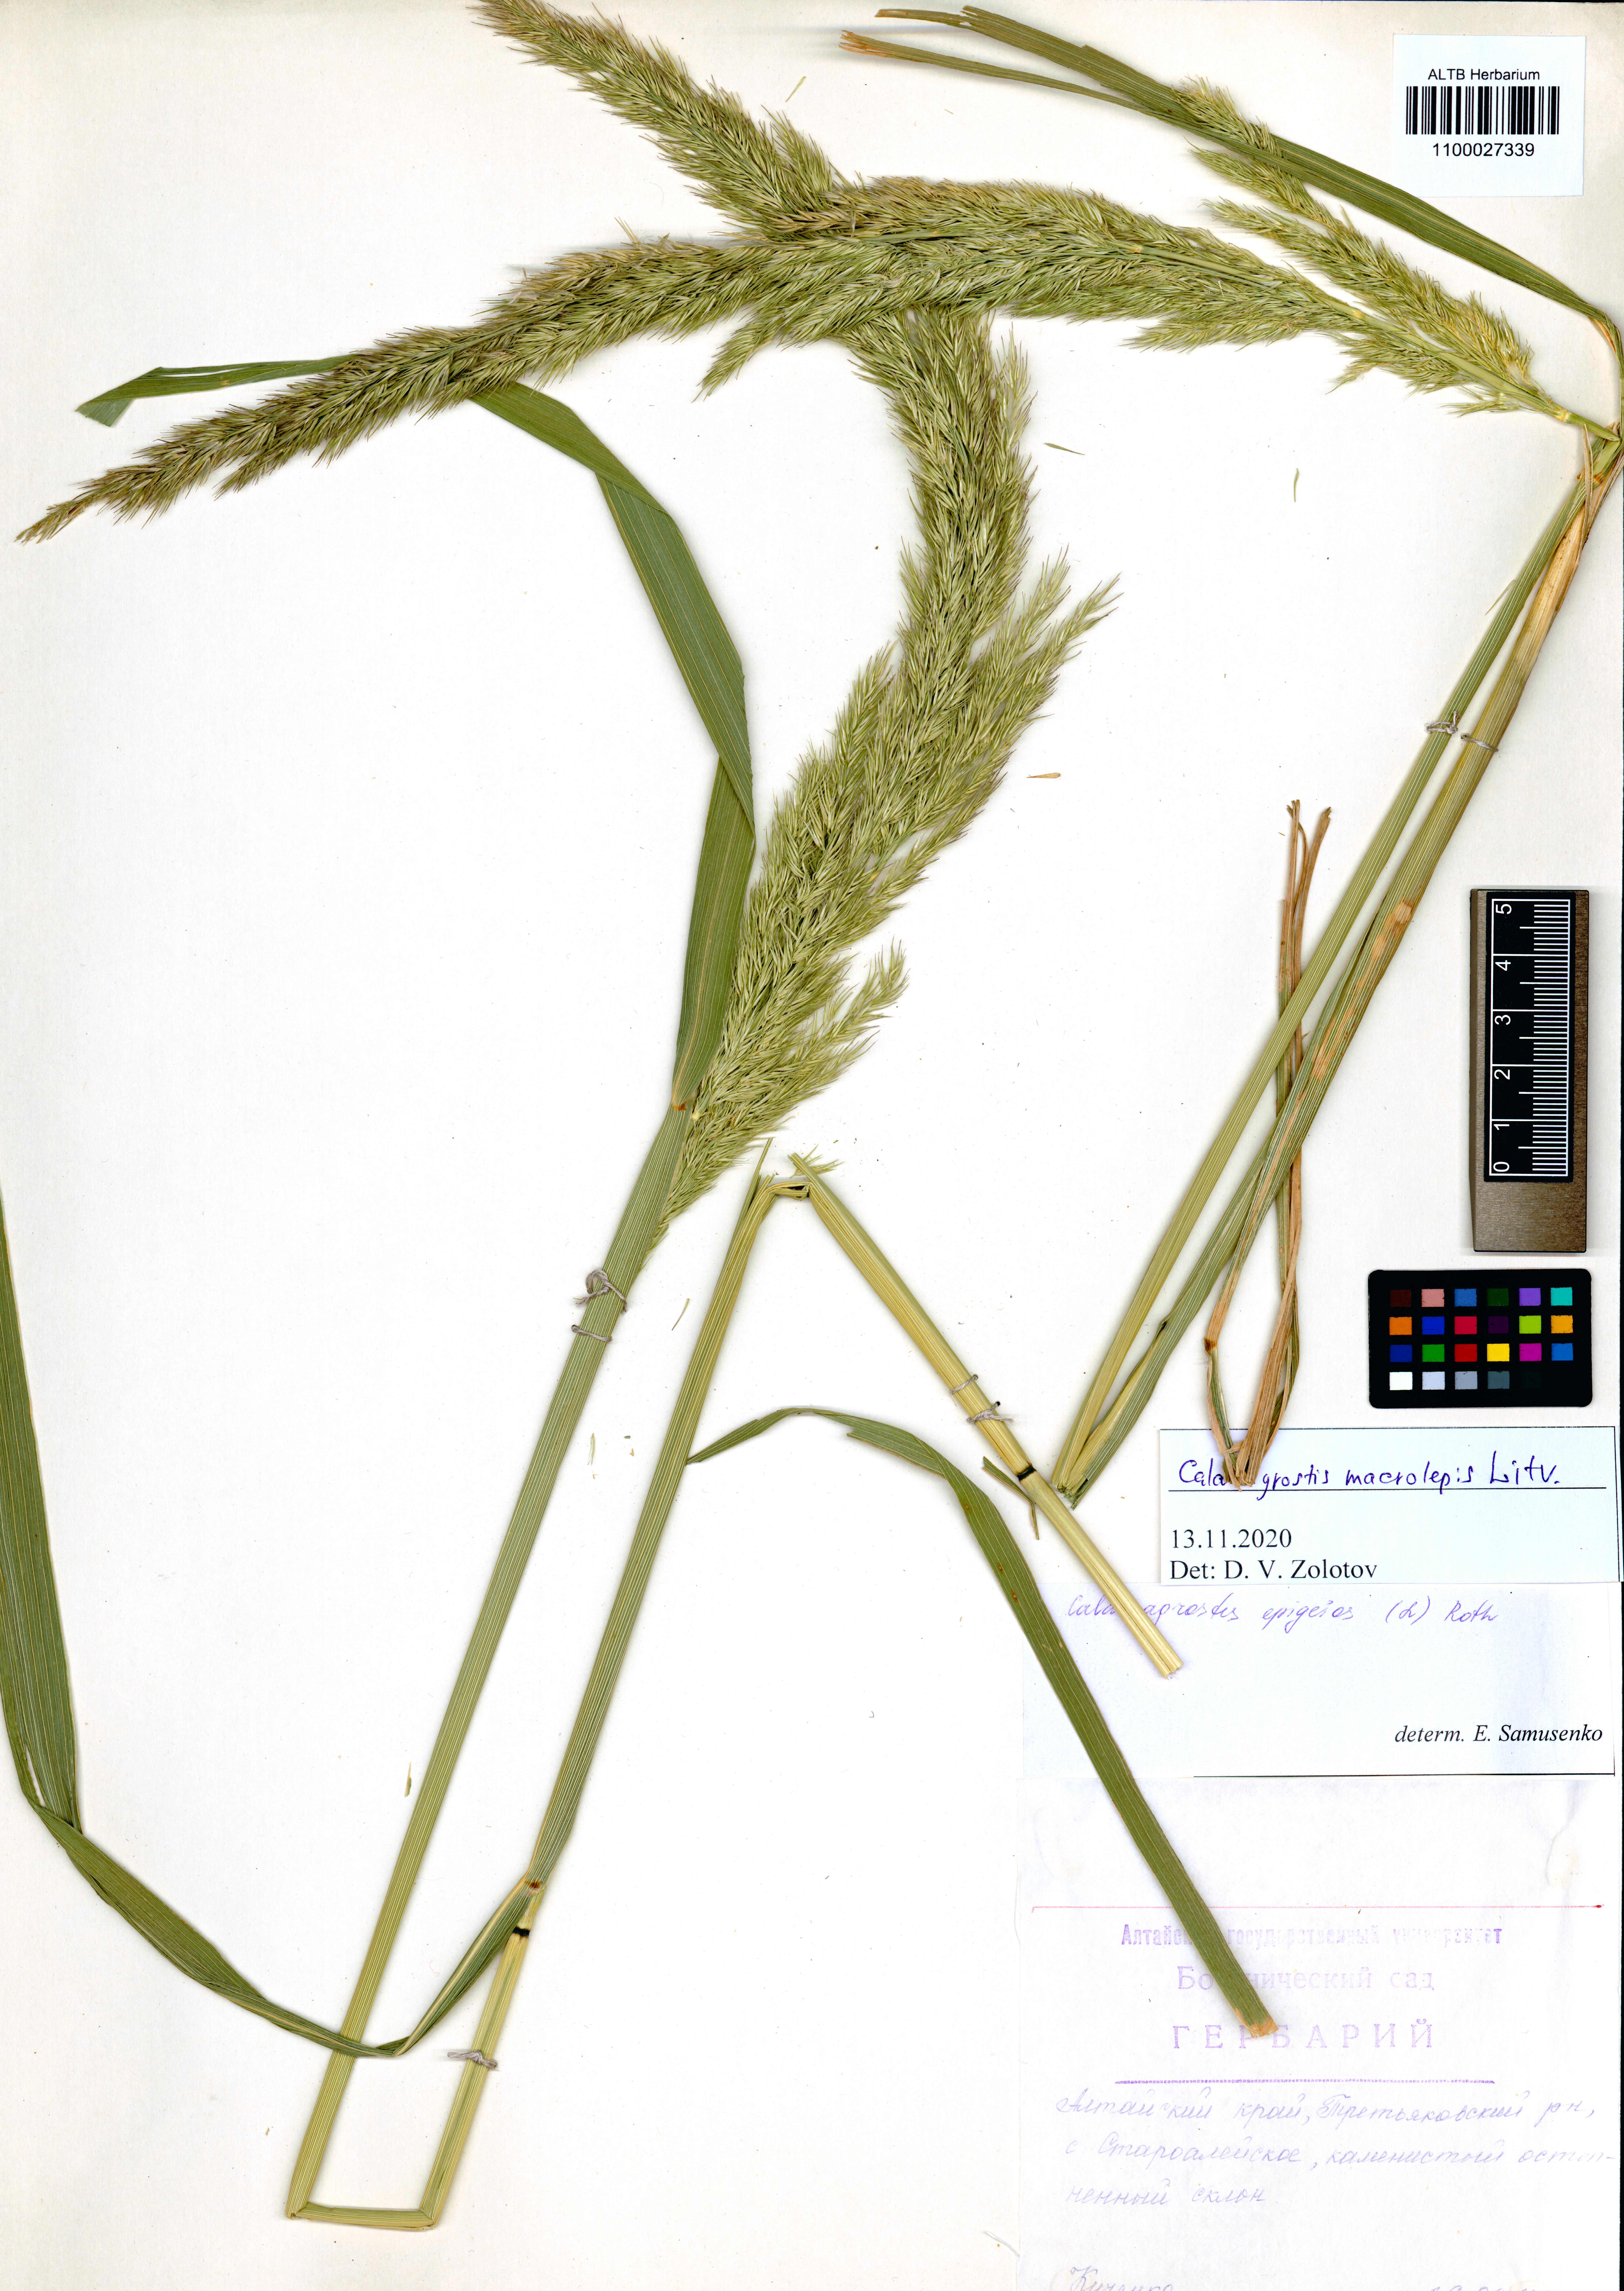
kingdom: Plantae
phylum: Tracheophyta
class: Liliopsida
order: Poales
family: Poaceae
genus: Calamagrostis
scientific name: Calamagrostis macrolepis
